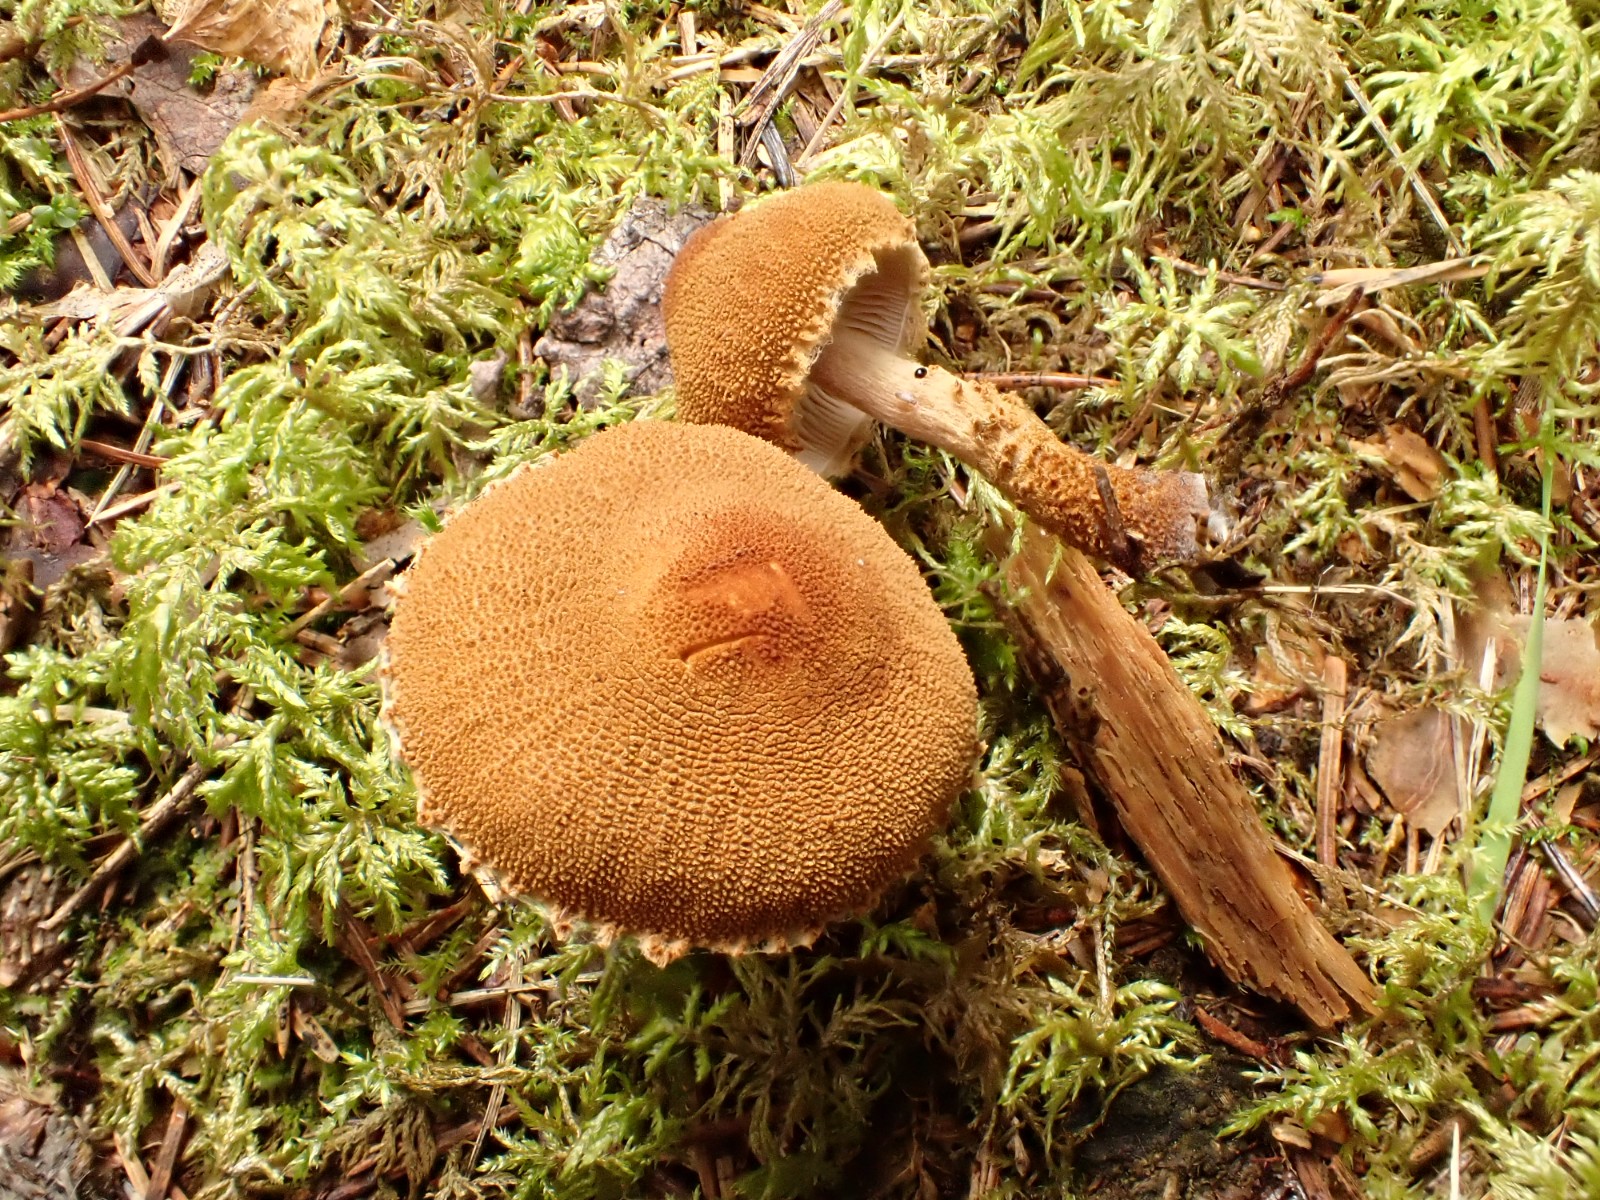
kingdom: Fungi
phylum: Basidiomycota
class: Agaricomycetes
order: Agaricales
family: Tricholomataceae
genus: Cystoderma
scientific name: Cystoderma jasonis
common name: gulkødet grynhat
